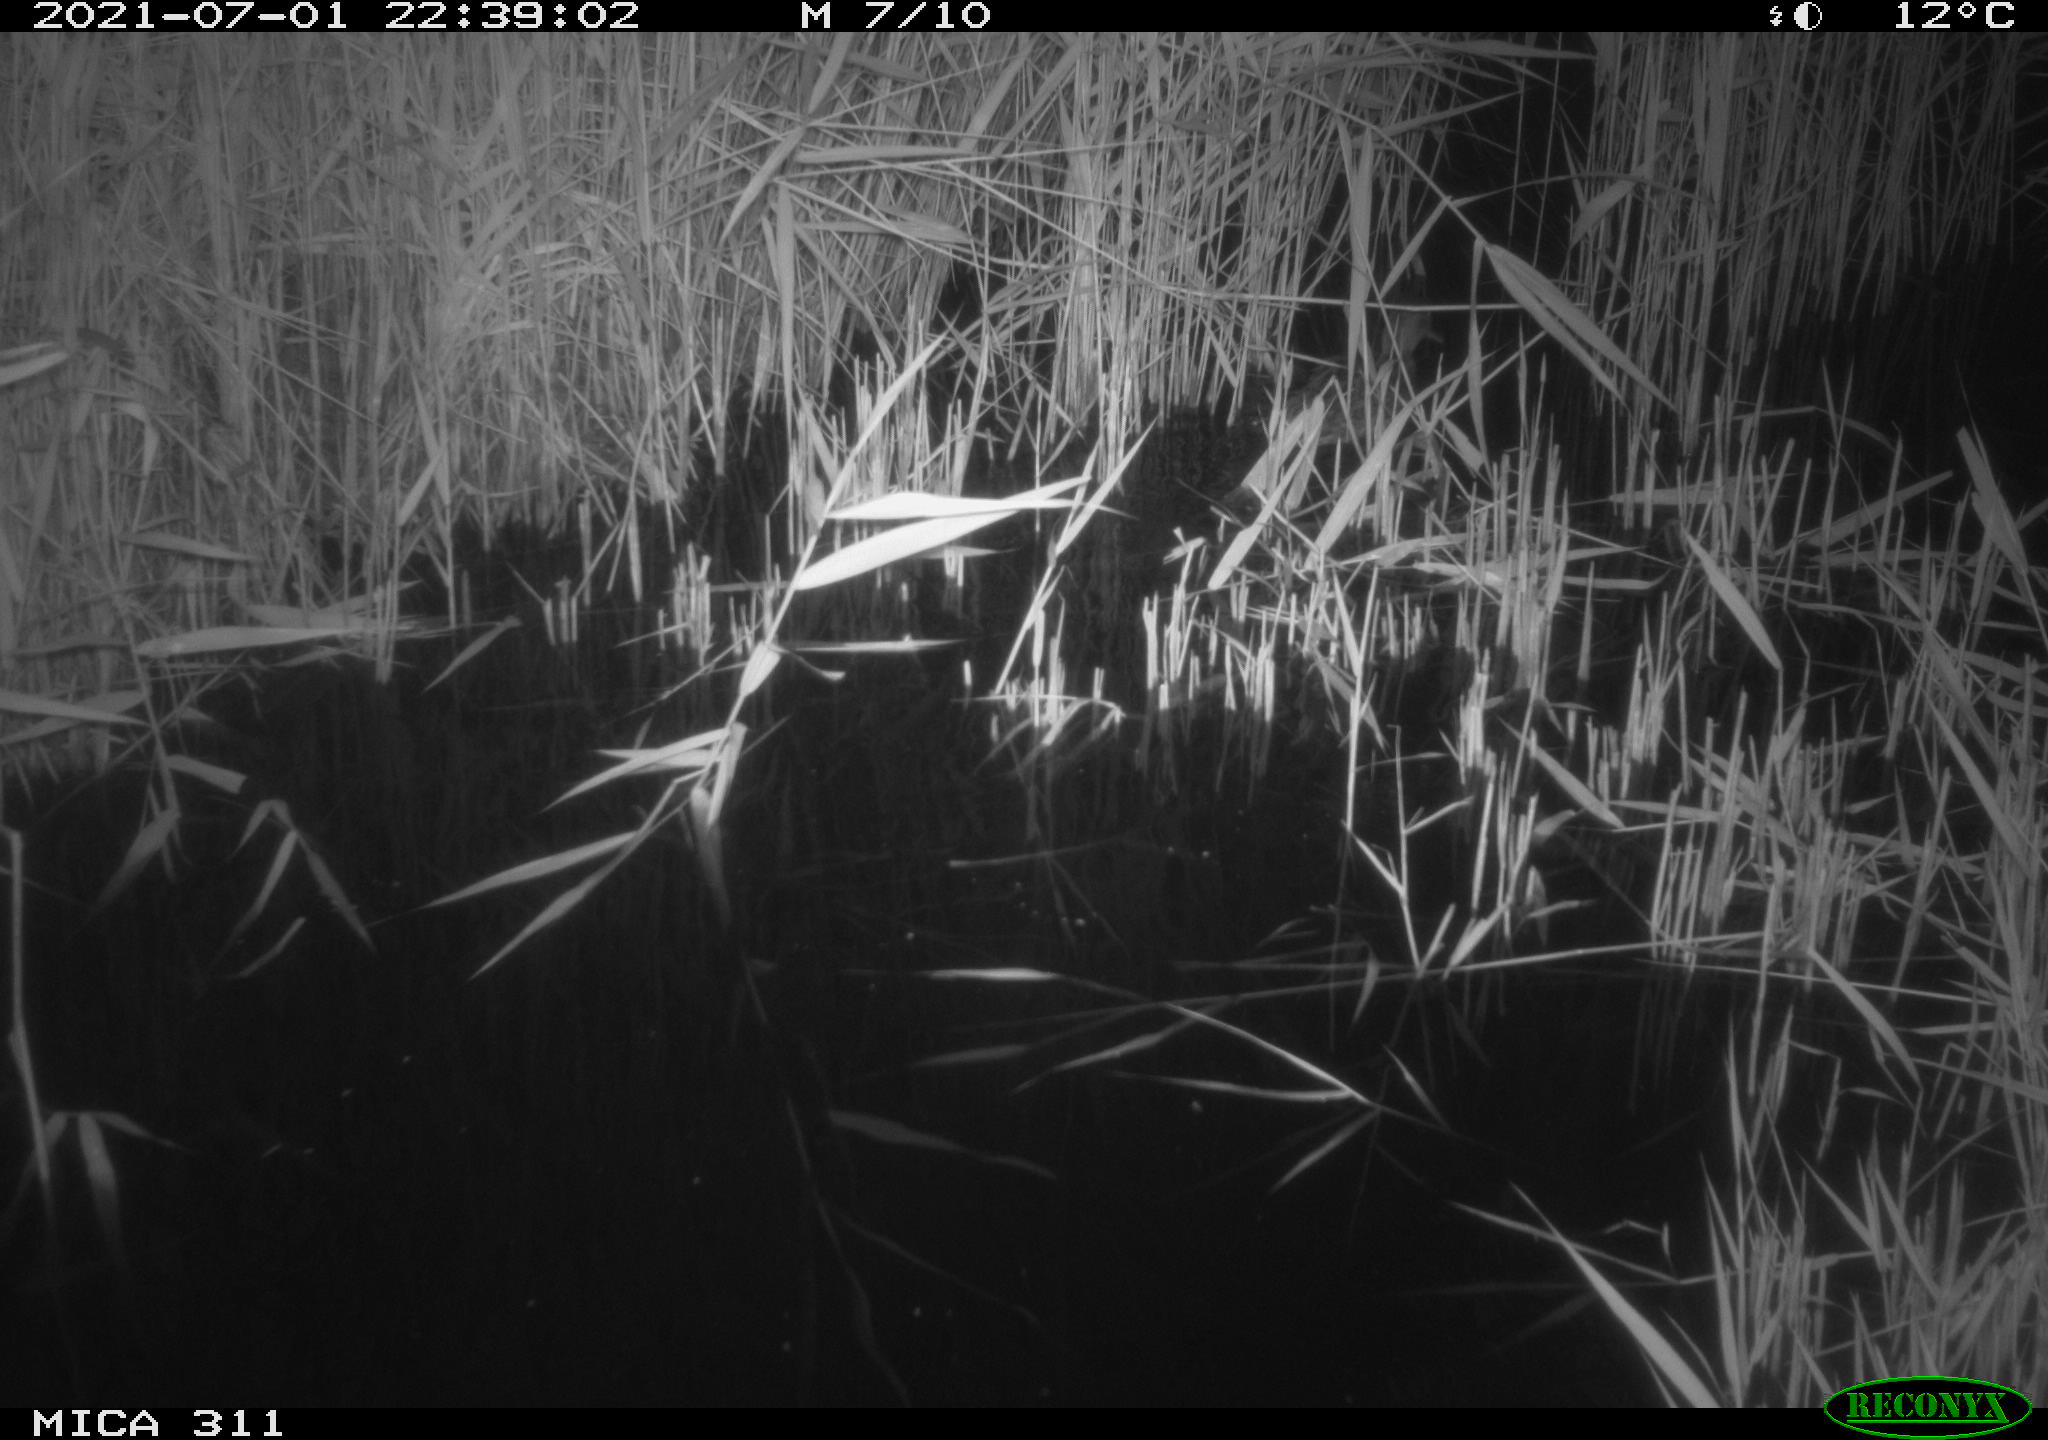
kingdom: Animalia
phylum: Chordata
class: Aves
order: Anseriformes
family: Anatidae
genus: Anas
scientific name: Anas
